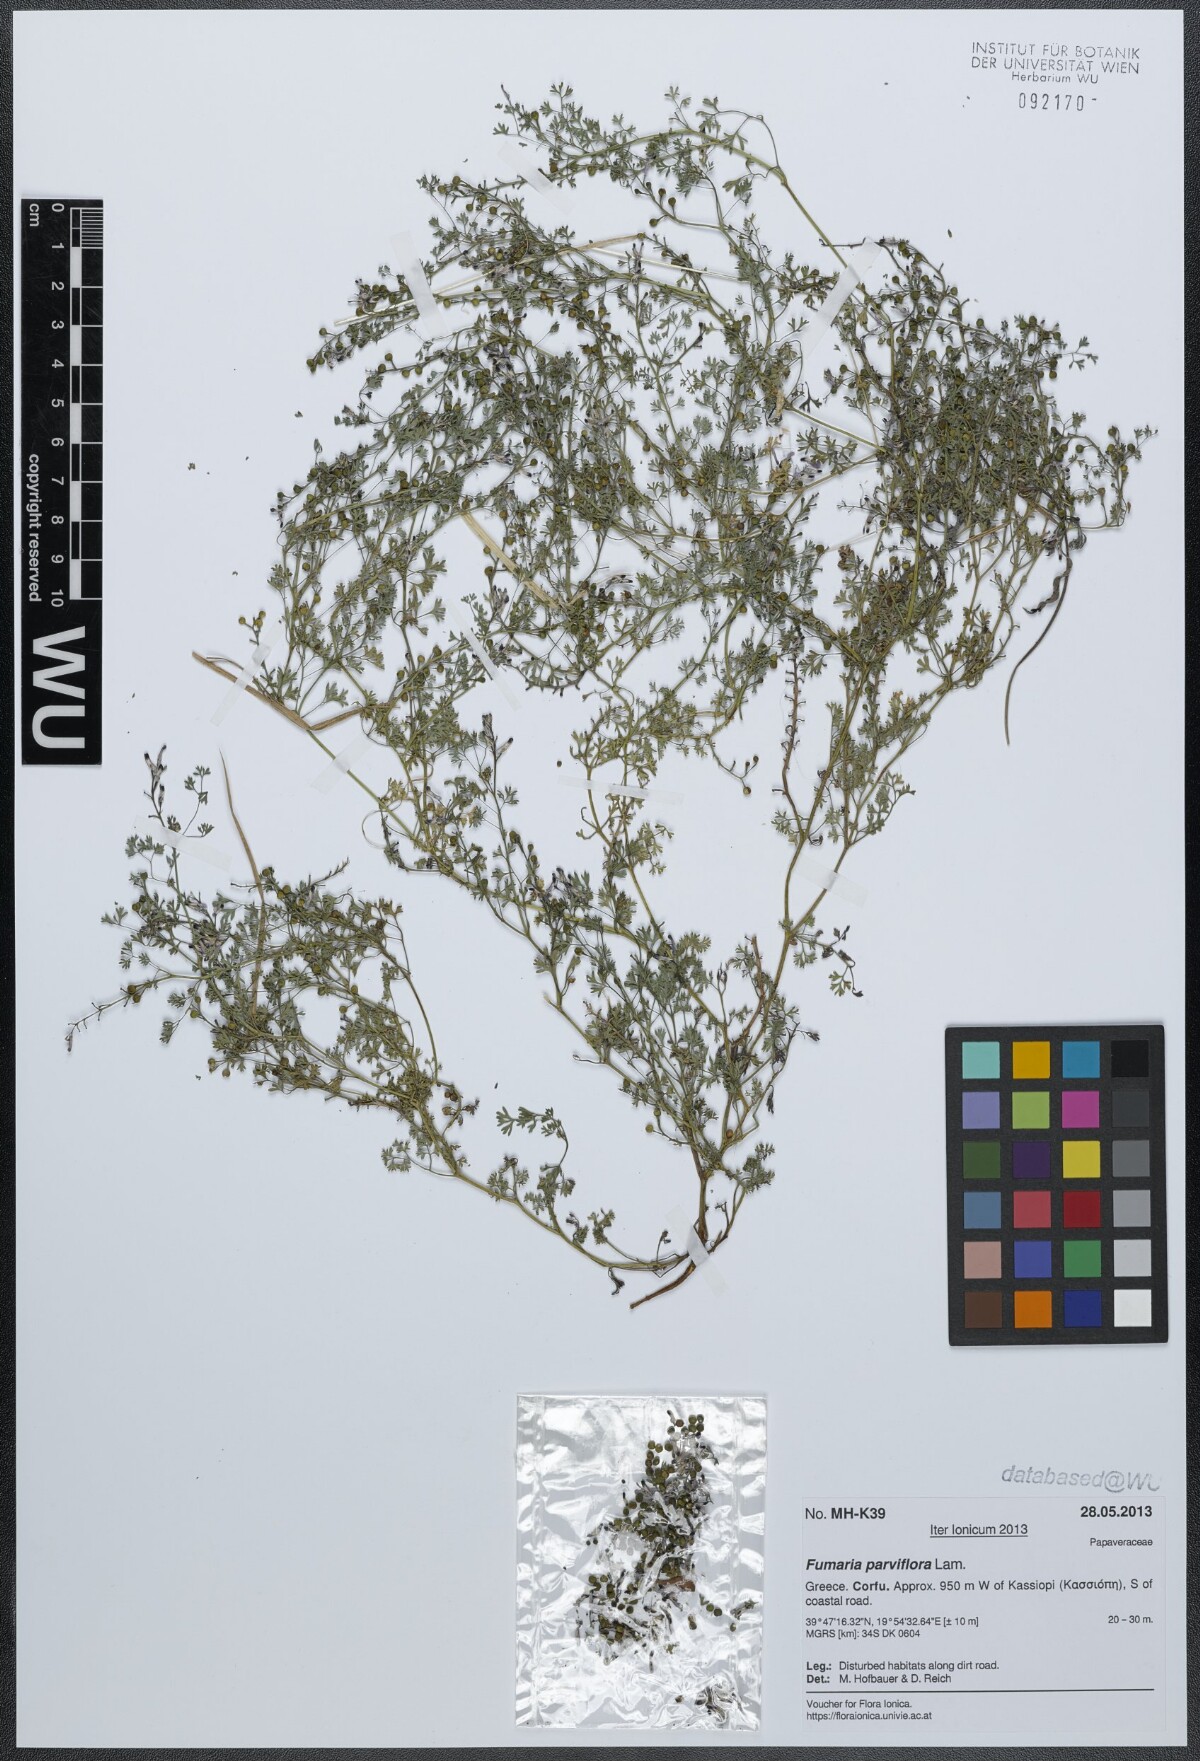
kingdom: Plantae
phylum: Tracheophyta
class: Magnoliopsida
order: Ranunculales
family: Papaveraceae
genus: Fumaria
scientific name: Fumaria parviflora
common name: Fine-leaved fumitory
